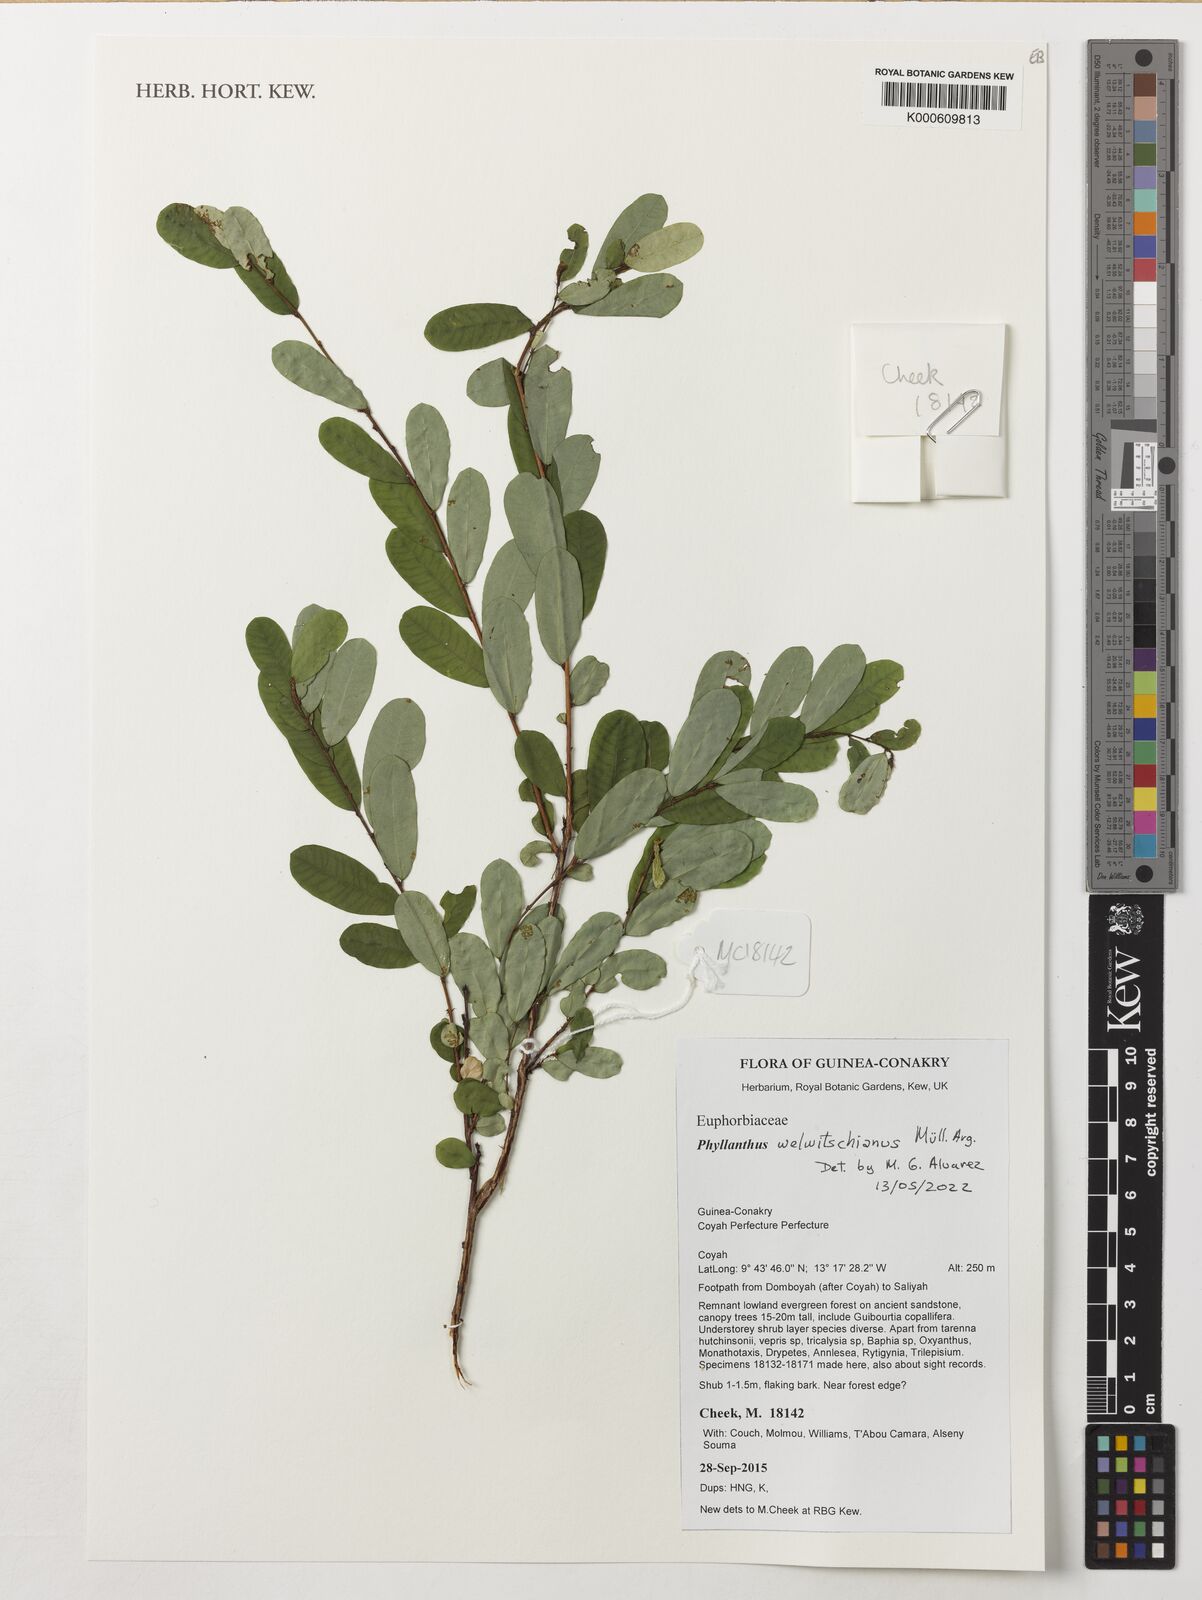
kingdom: Plantae
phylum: Tracheophyta
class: Magnoliopsida
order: Malpighiales
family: Phyllanthaceae
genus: Phyllanthus
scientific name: Phyllanthus welwitschianus
